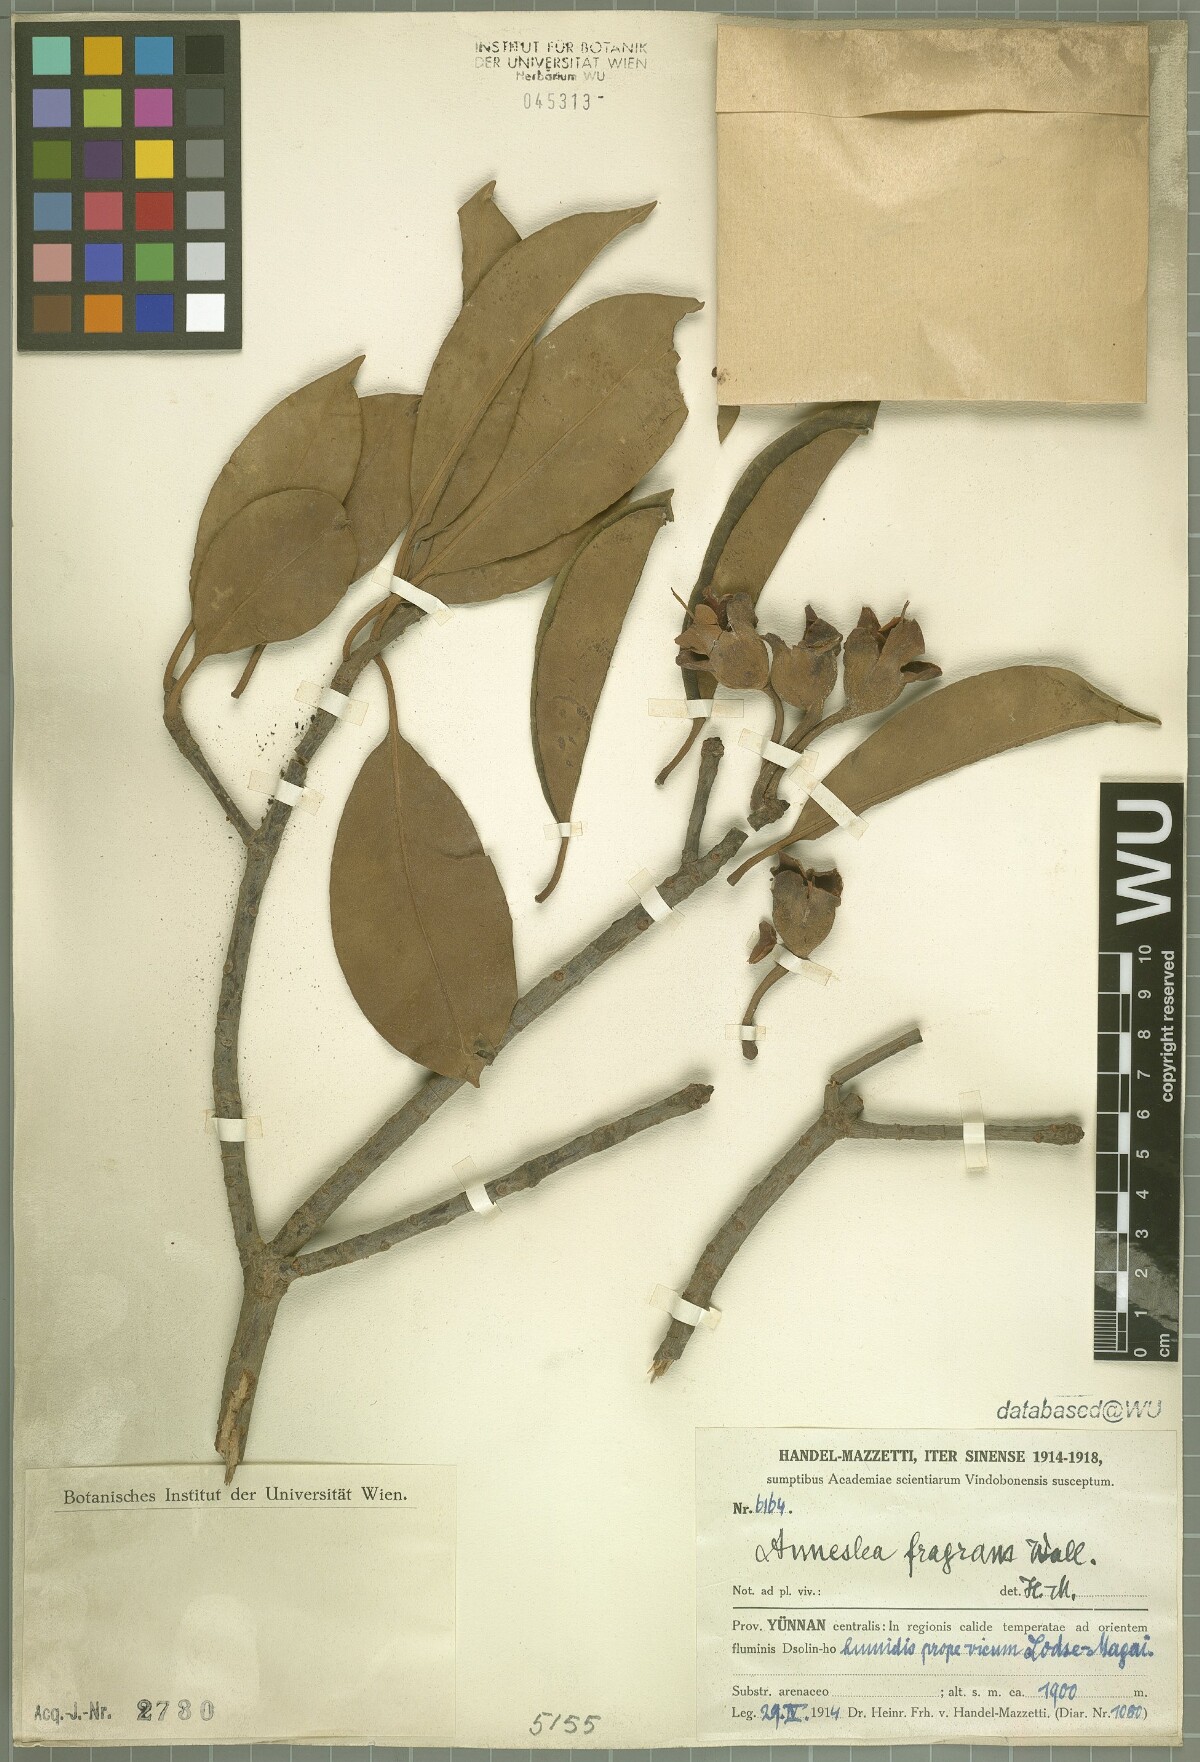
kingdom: Plantae
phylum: Tracheophyta
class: Magnoliopsida
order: Ericales
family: Pentaphylacaceae
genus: Anneslea
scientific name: Anneslea fragrans
